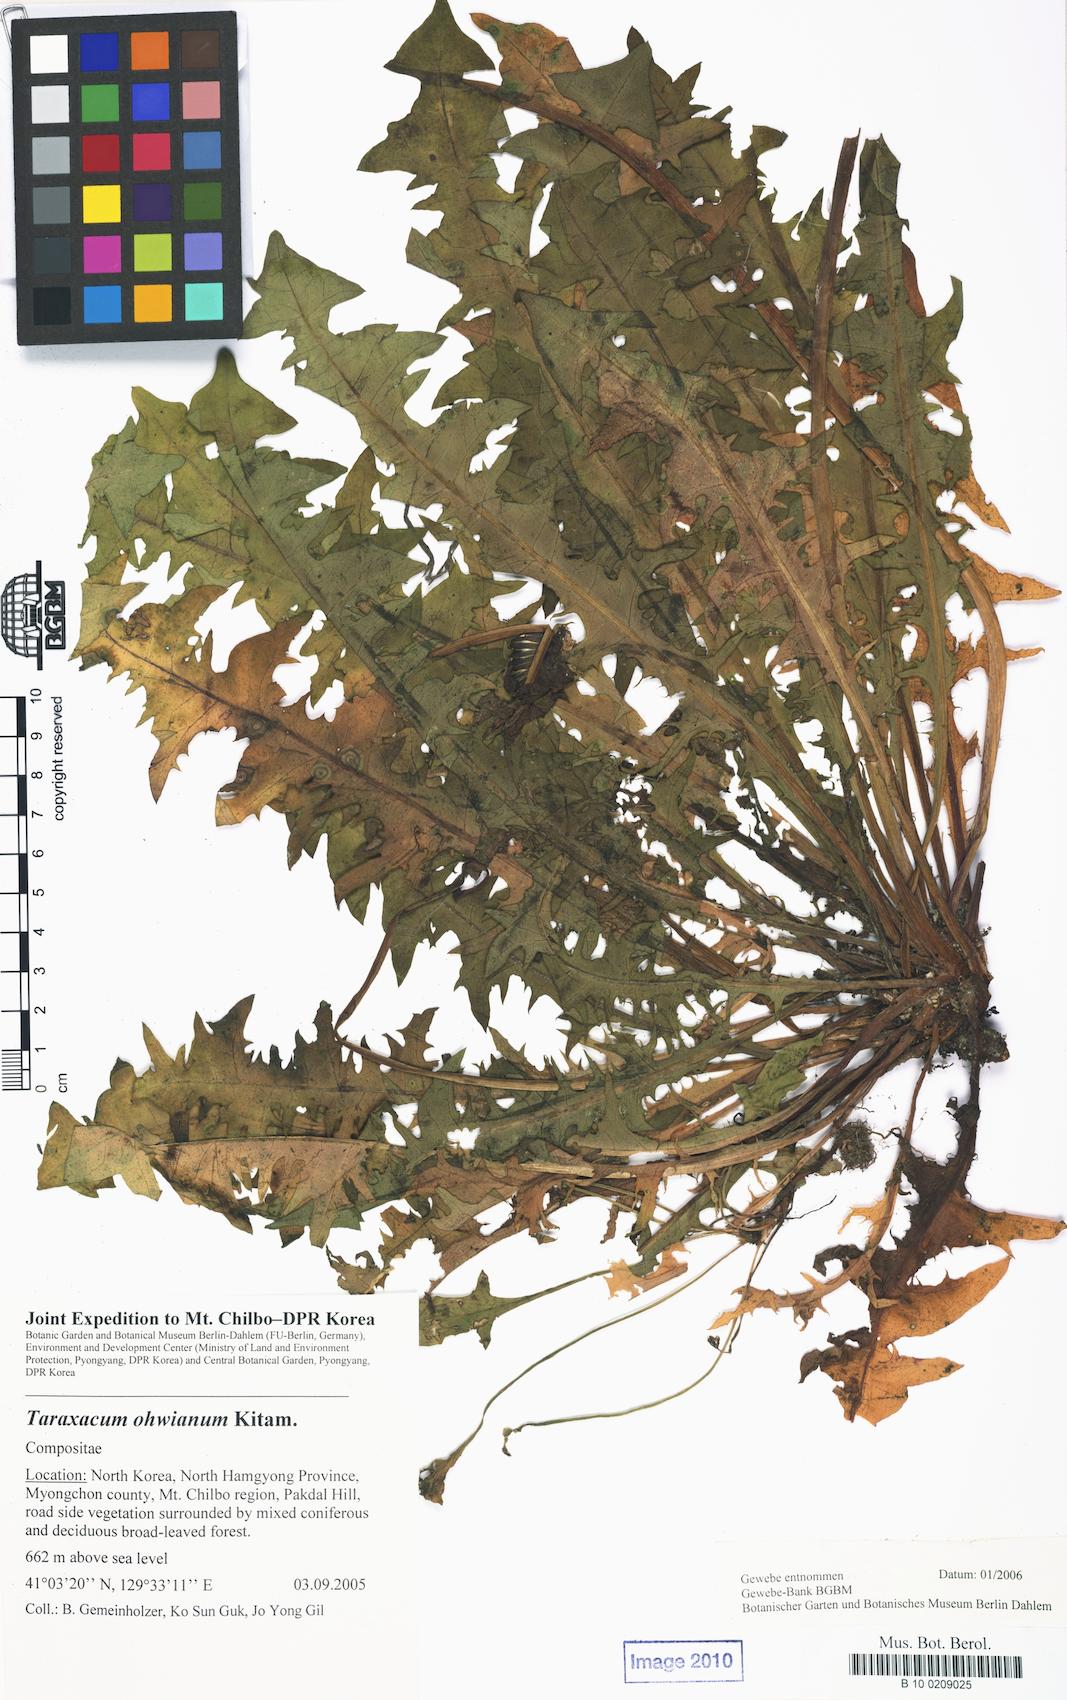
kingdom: Plantae
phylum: Tracheophyta
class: Magnoliopsida
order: Asterales
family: Asteraceae
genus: Taraxacum
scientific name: Taraxacum ussuriense
